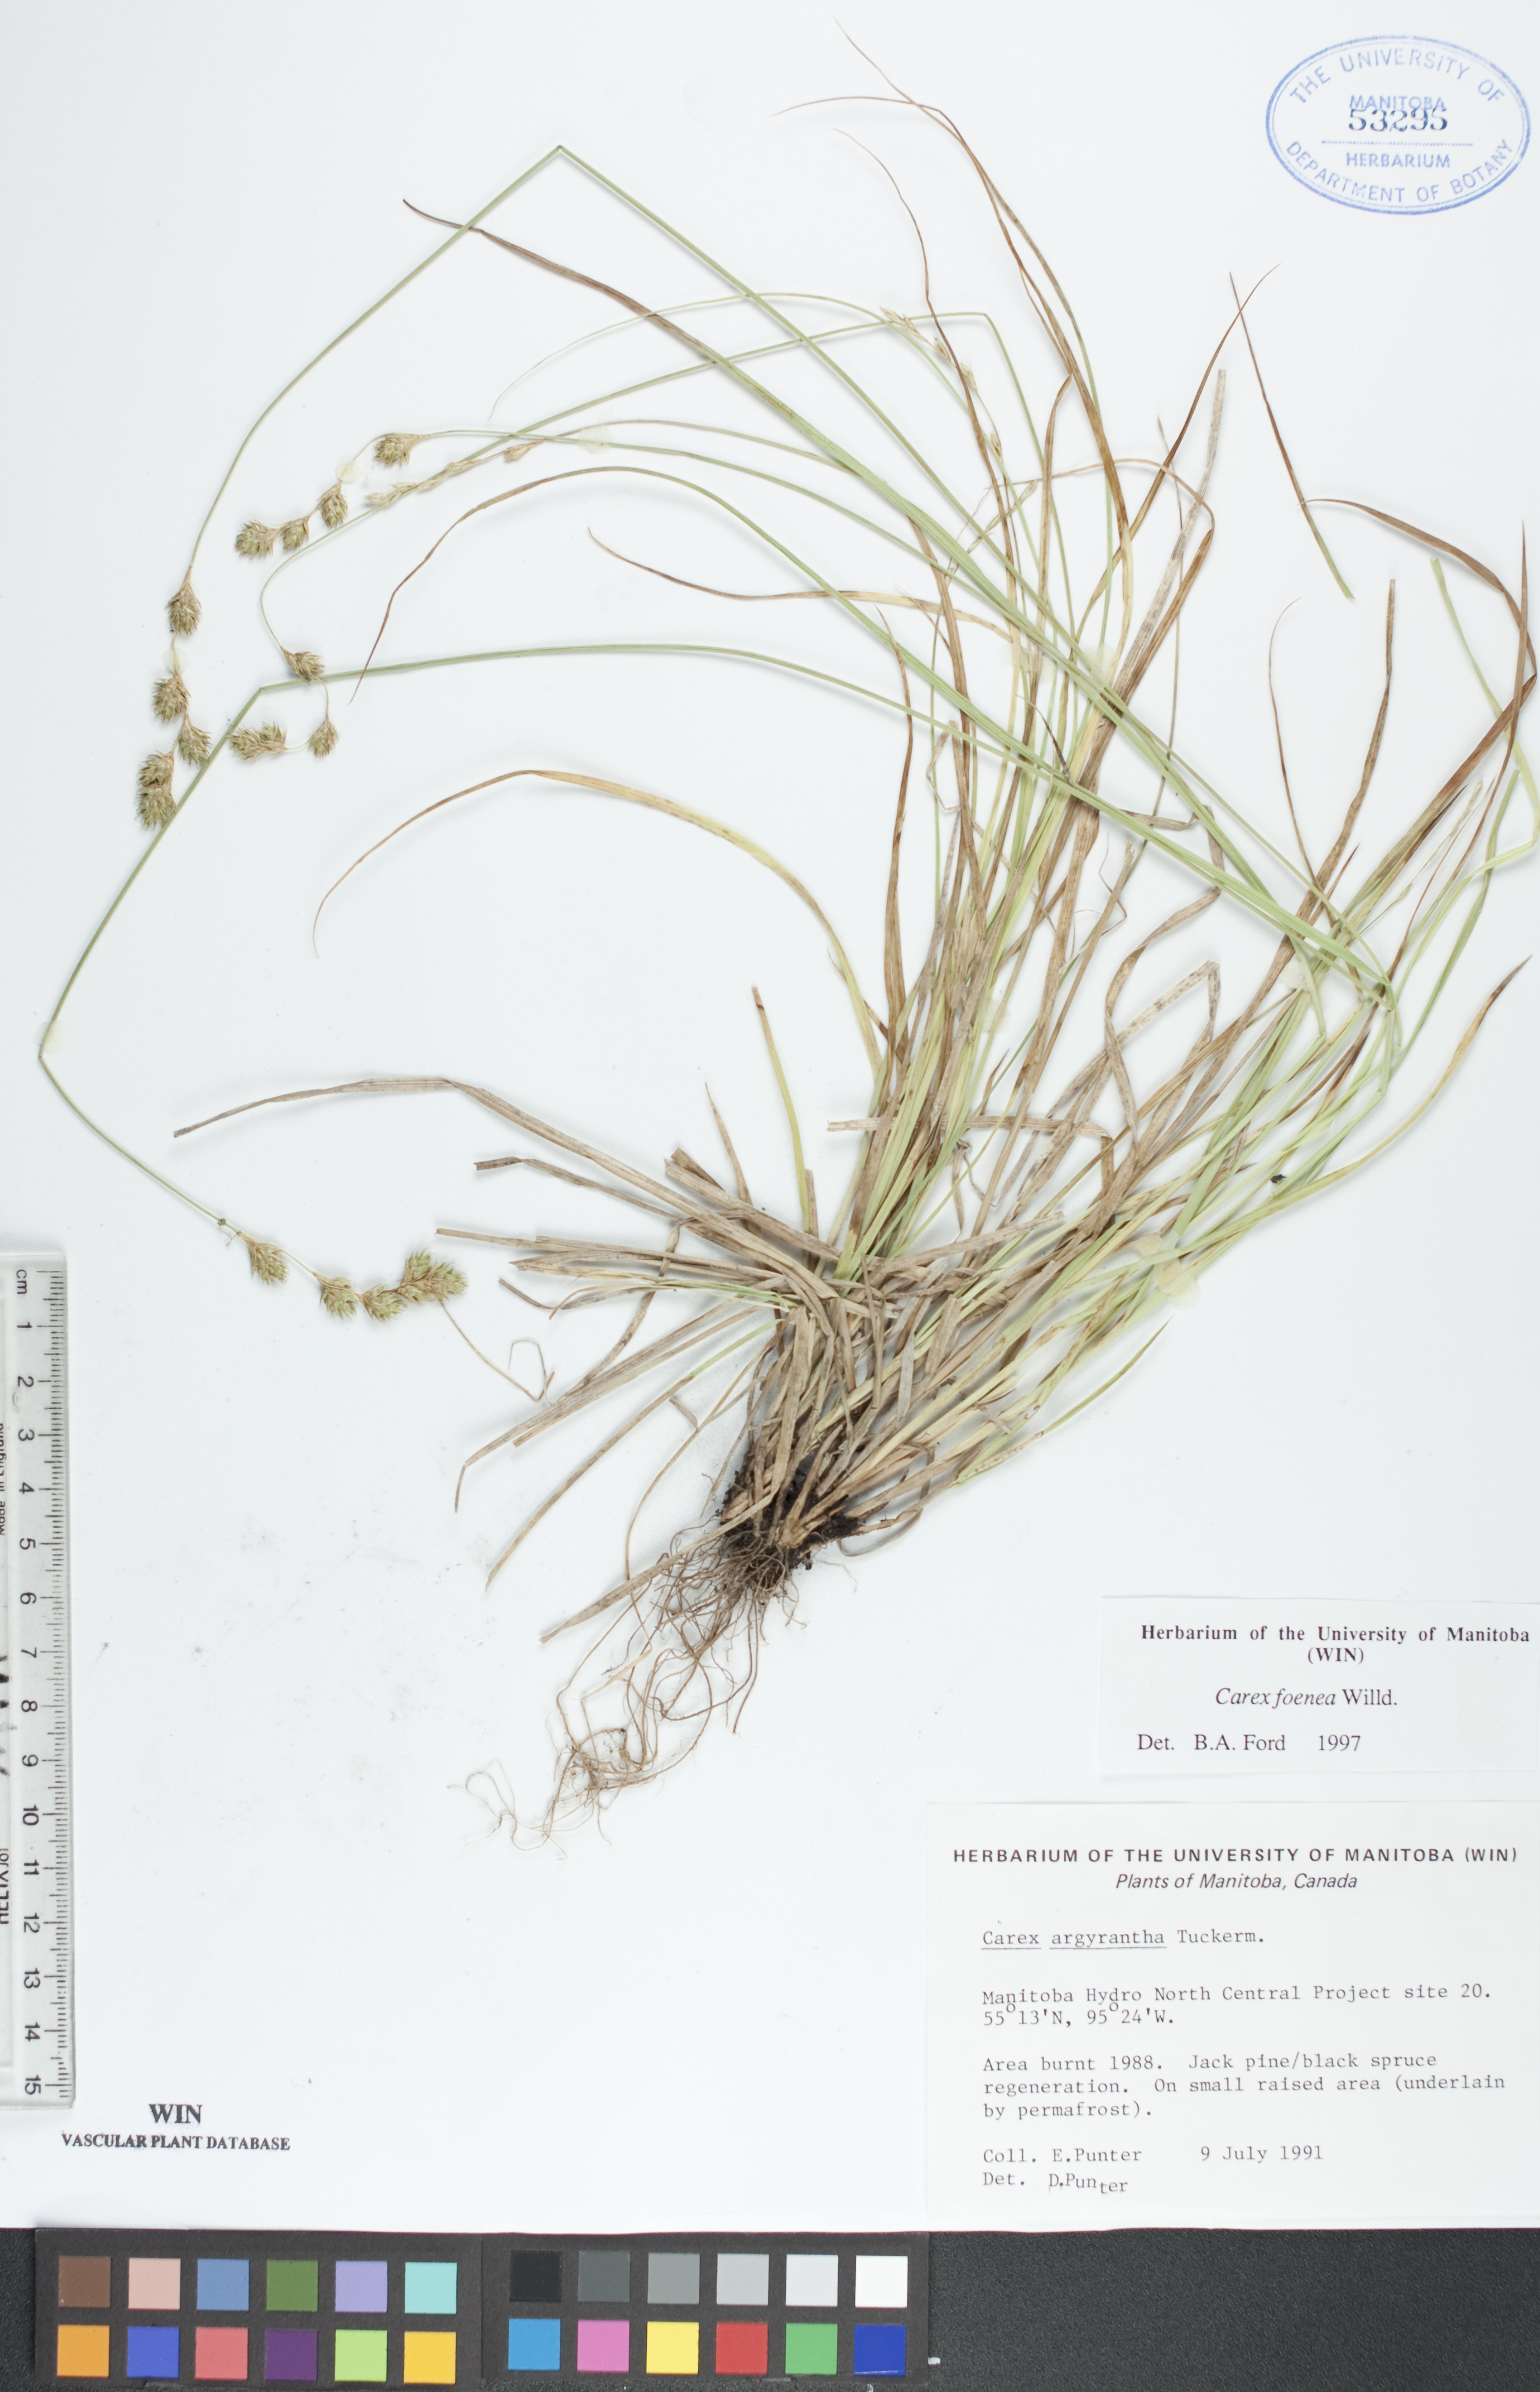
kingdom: Plantae
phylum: Tracheophyta
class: Liliopsida
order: Poales
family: Cyperaceae
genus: Carex
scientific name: Carex foenea
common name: Bronze sedge
